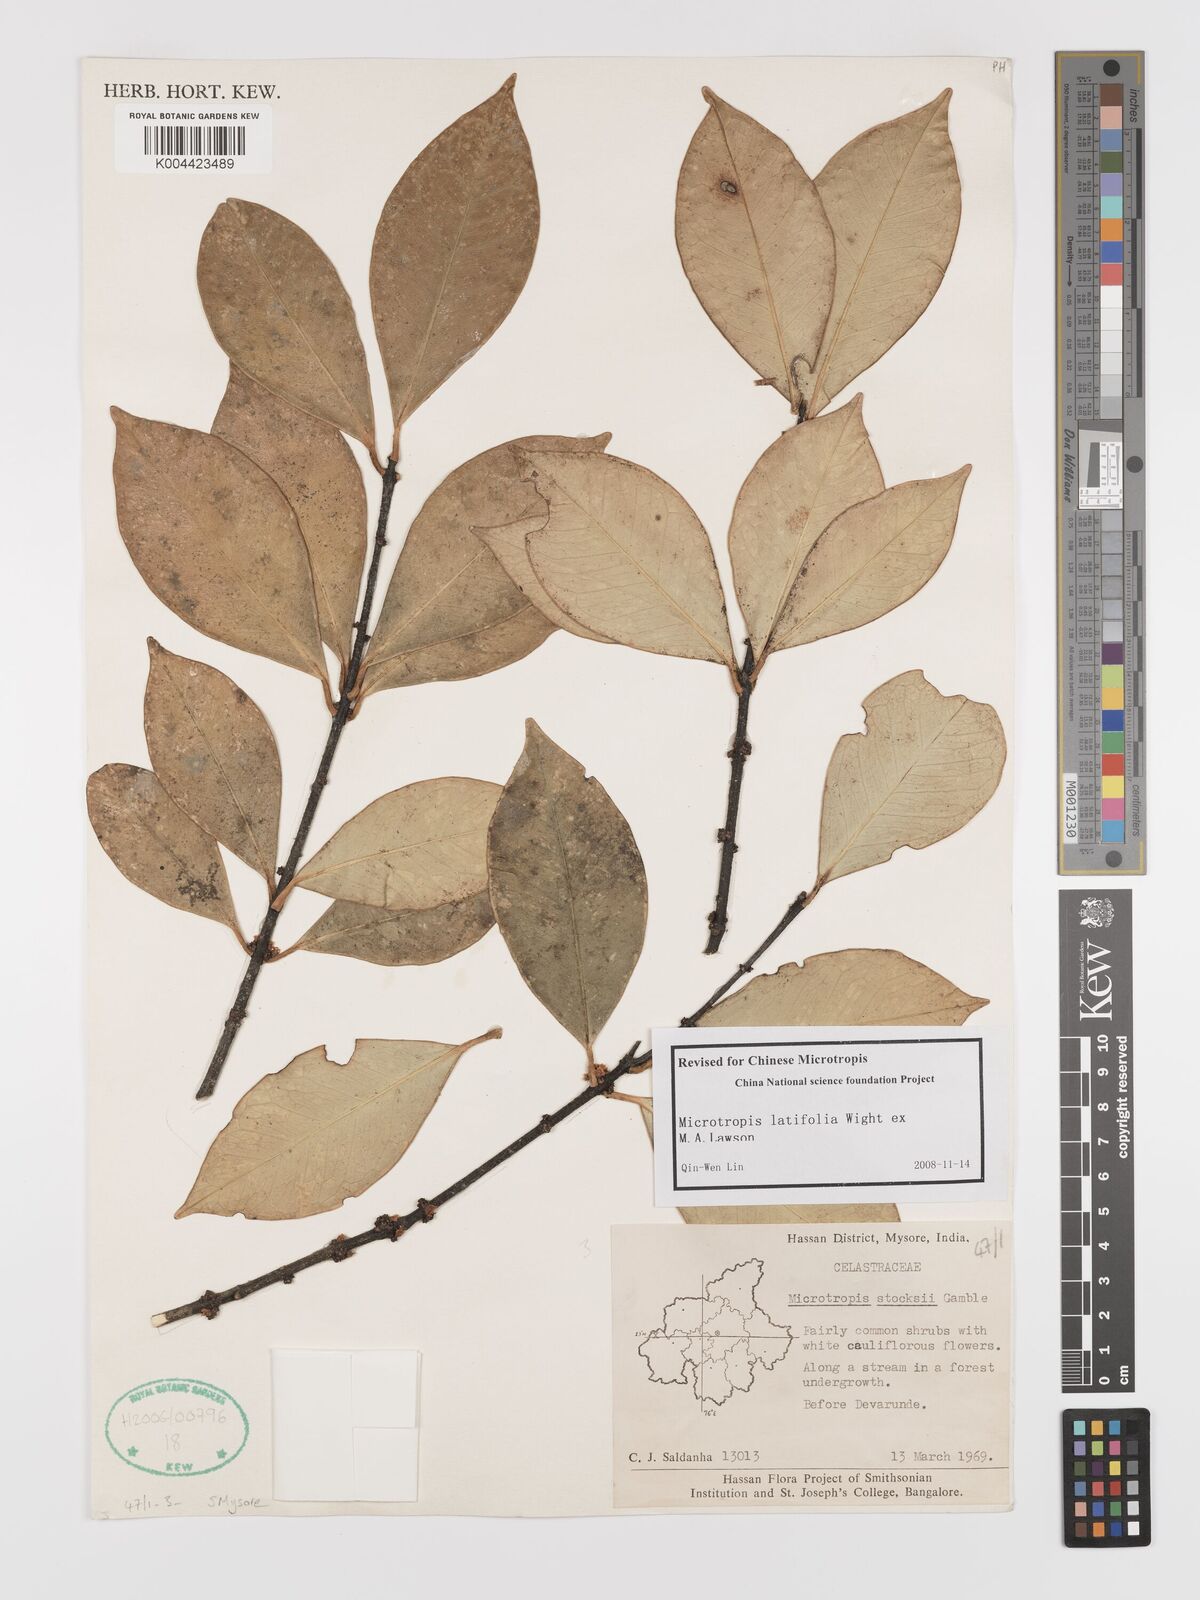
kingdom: Plantae
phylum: Tracheophyta
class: Magnoliopsida
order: Celastrales
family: Celastraceae
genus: Microtropis
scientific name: Microtropis latifolia
